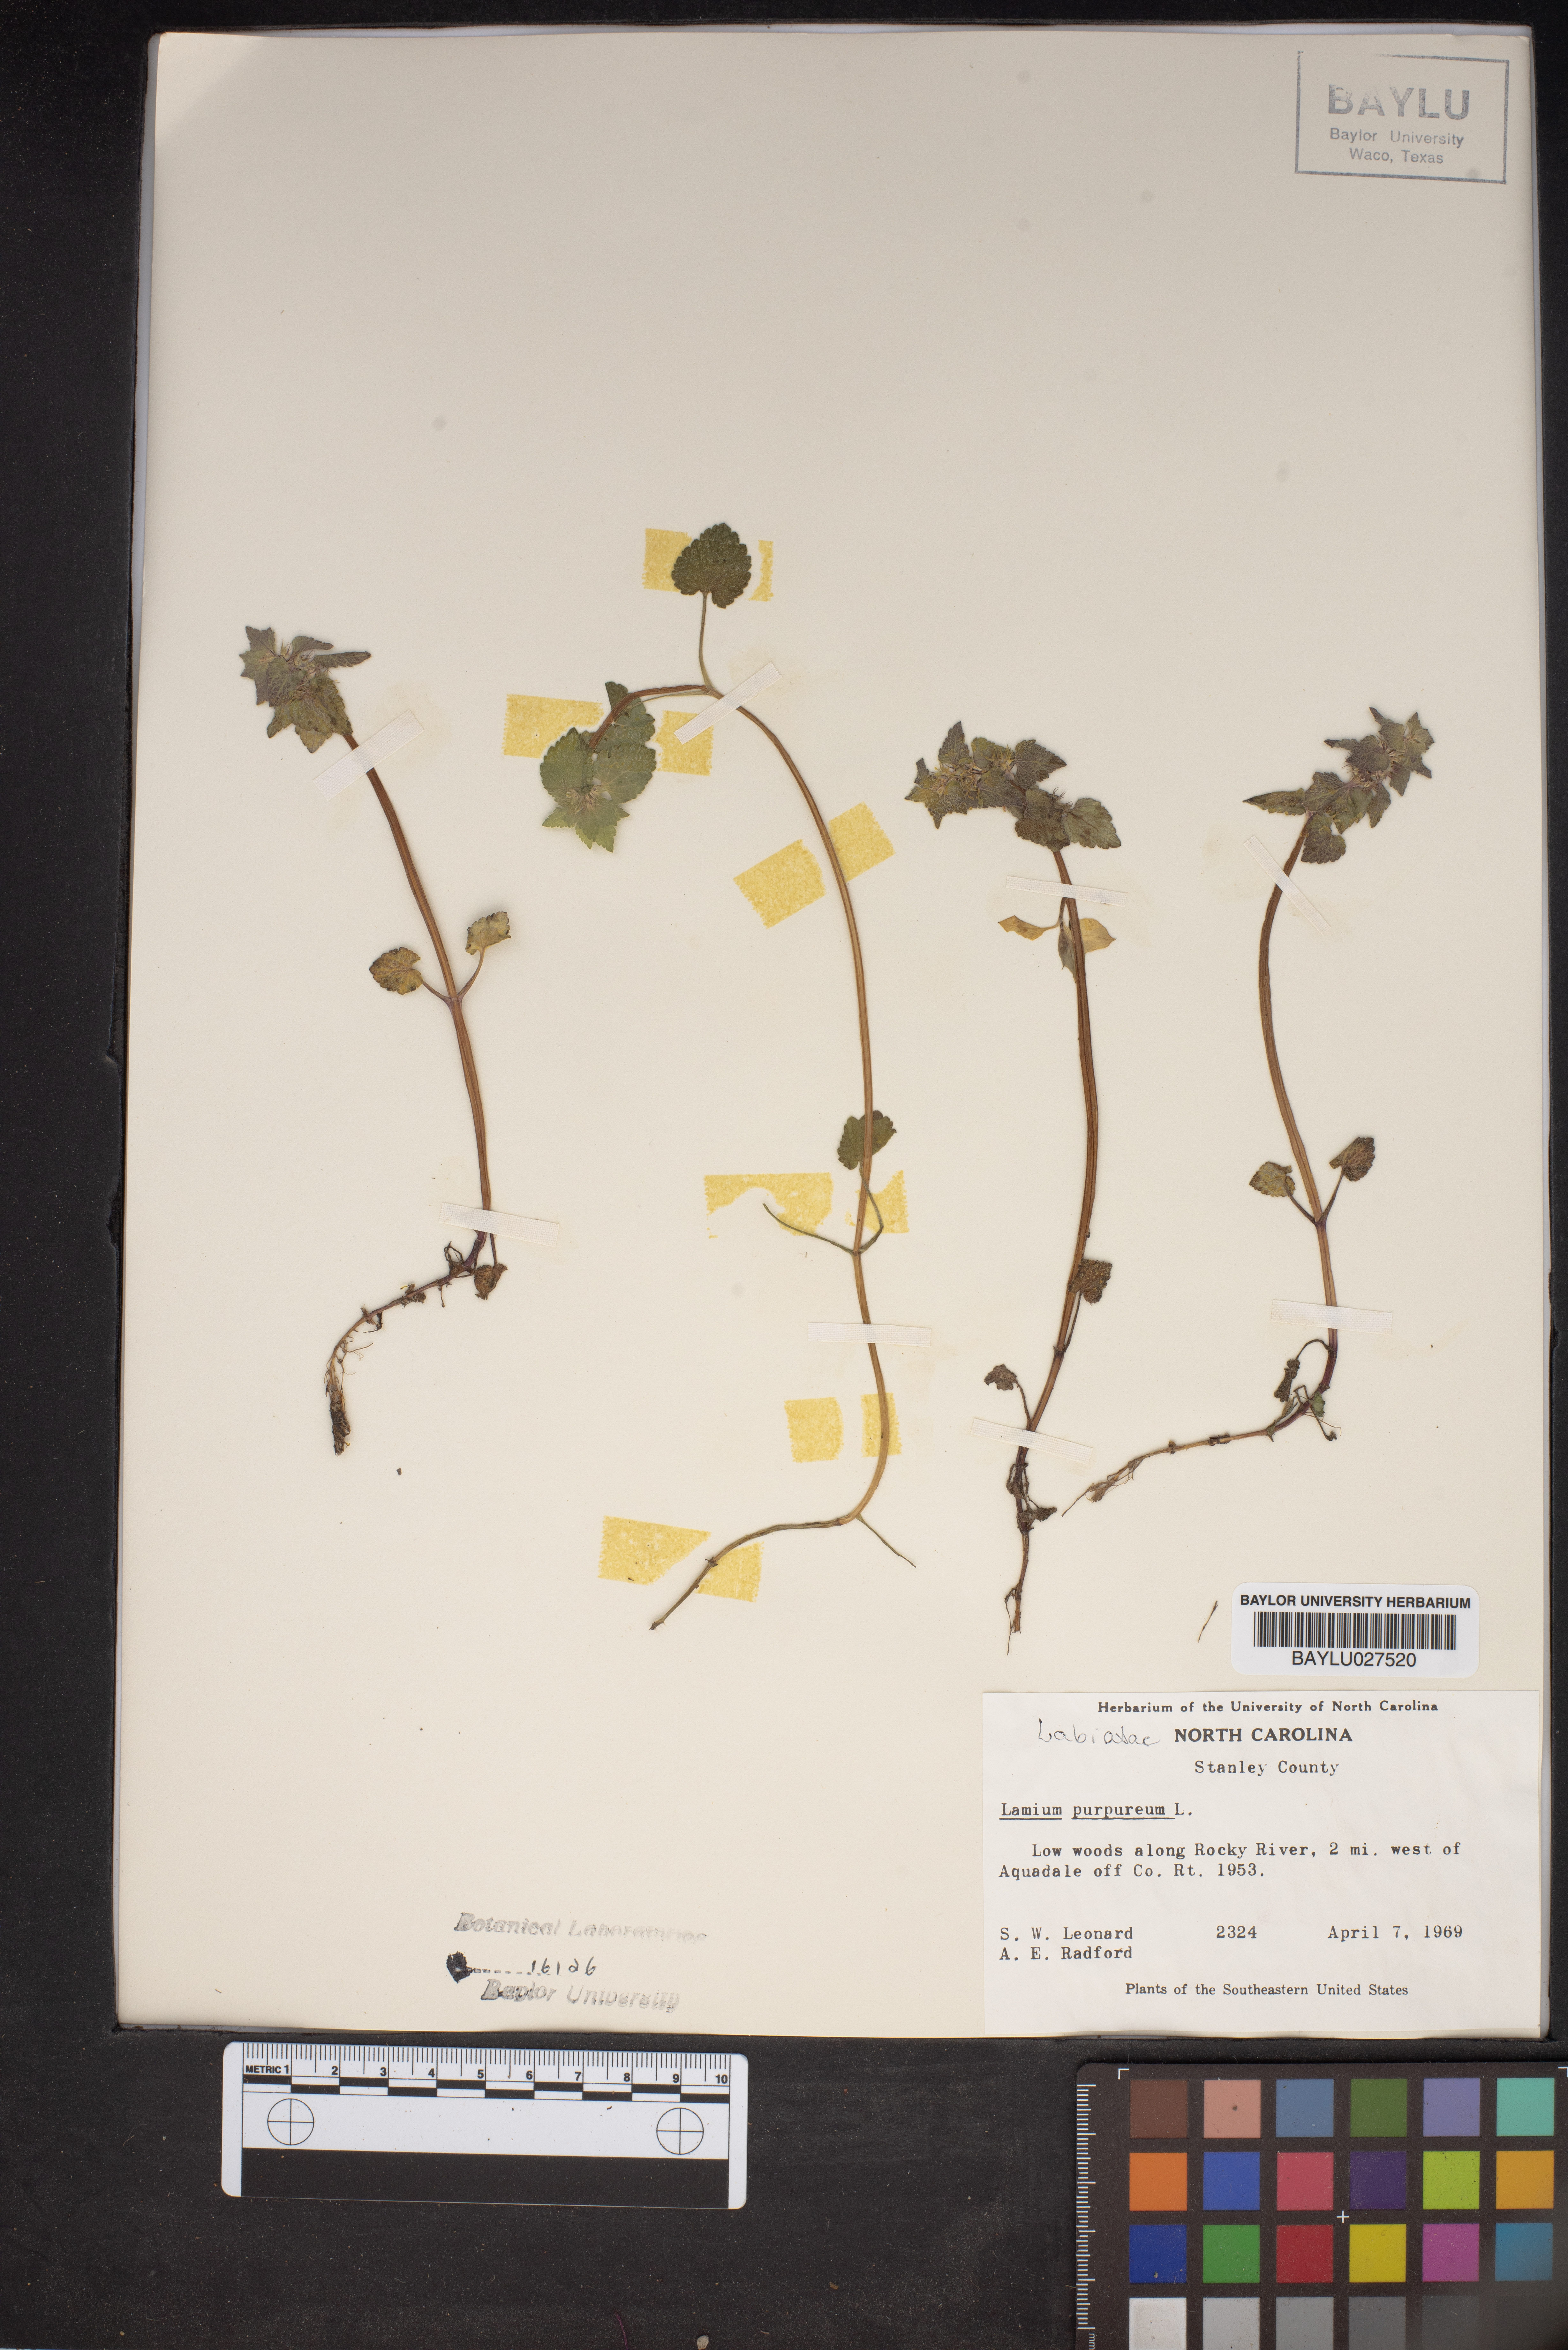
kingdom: Plantae
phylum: Tracheophyta
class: Magnoliopsida
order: Lamiales
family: Lamiaceae
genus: Lamium
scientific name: Lamium purpureum
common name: Red dead-nettle
